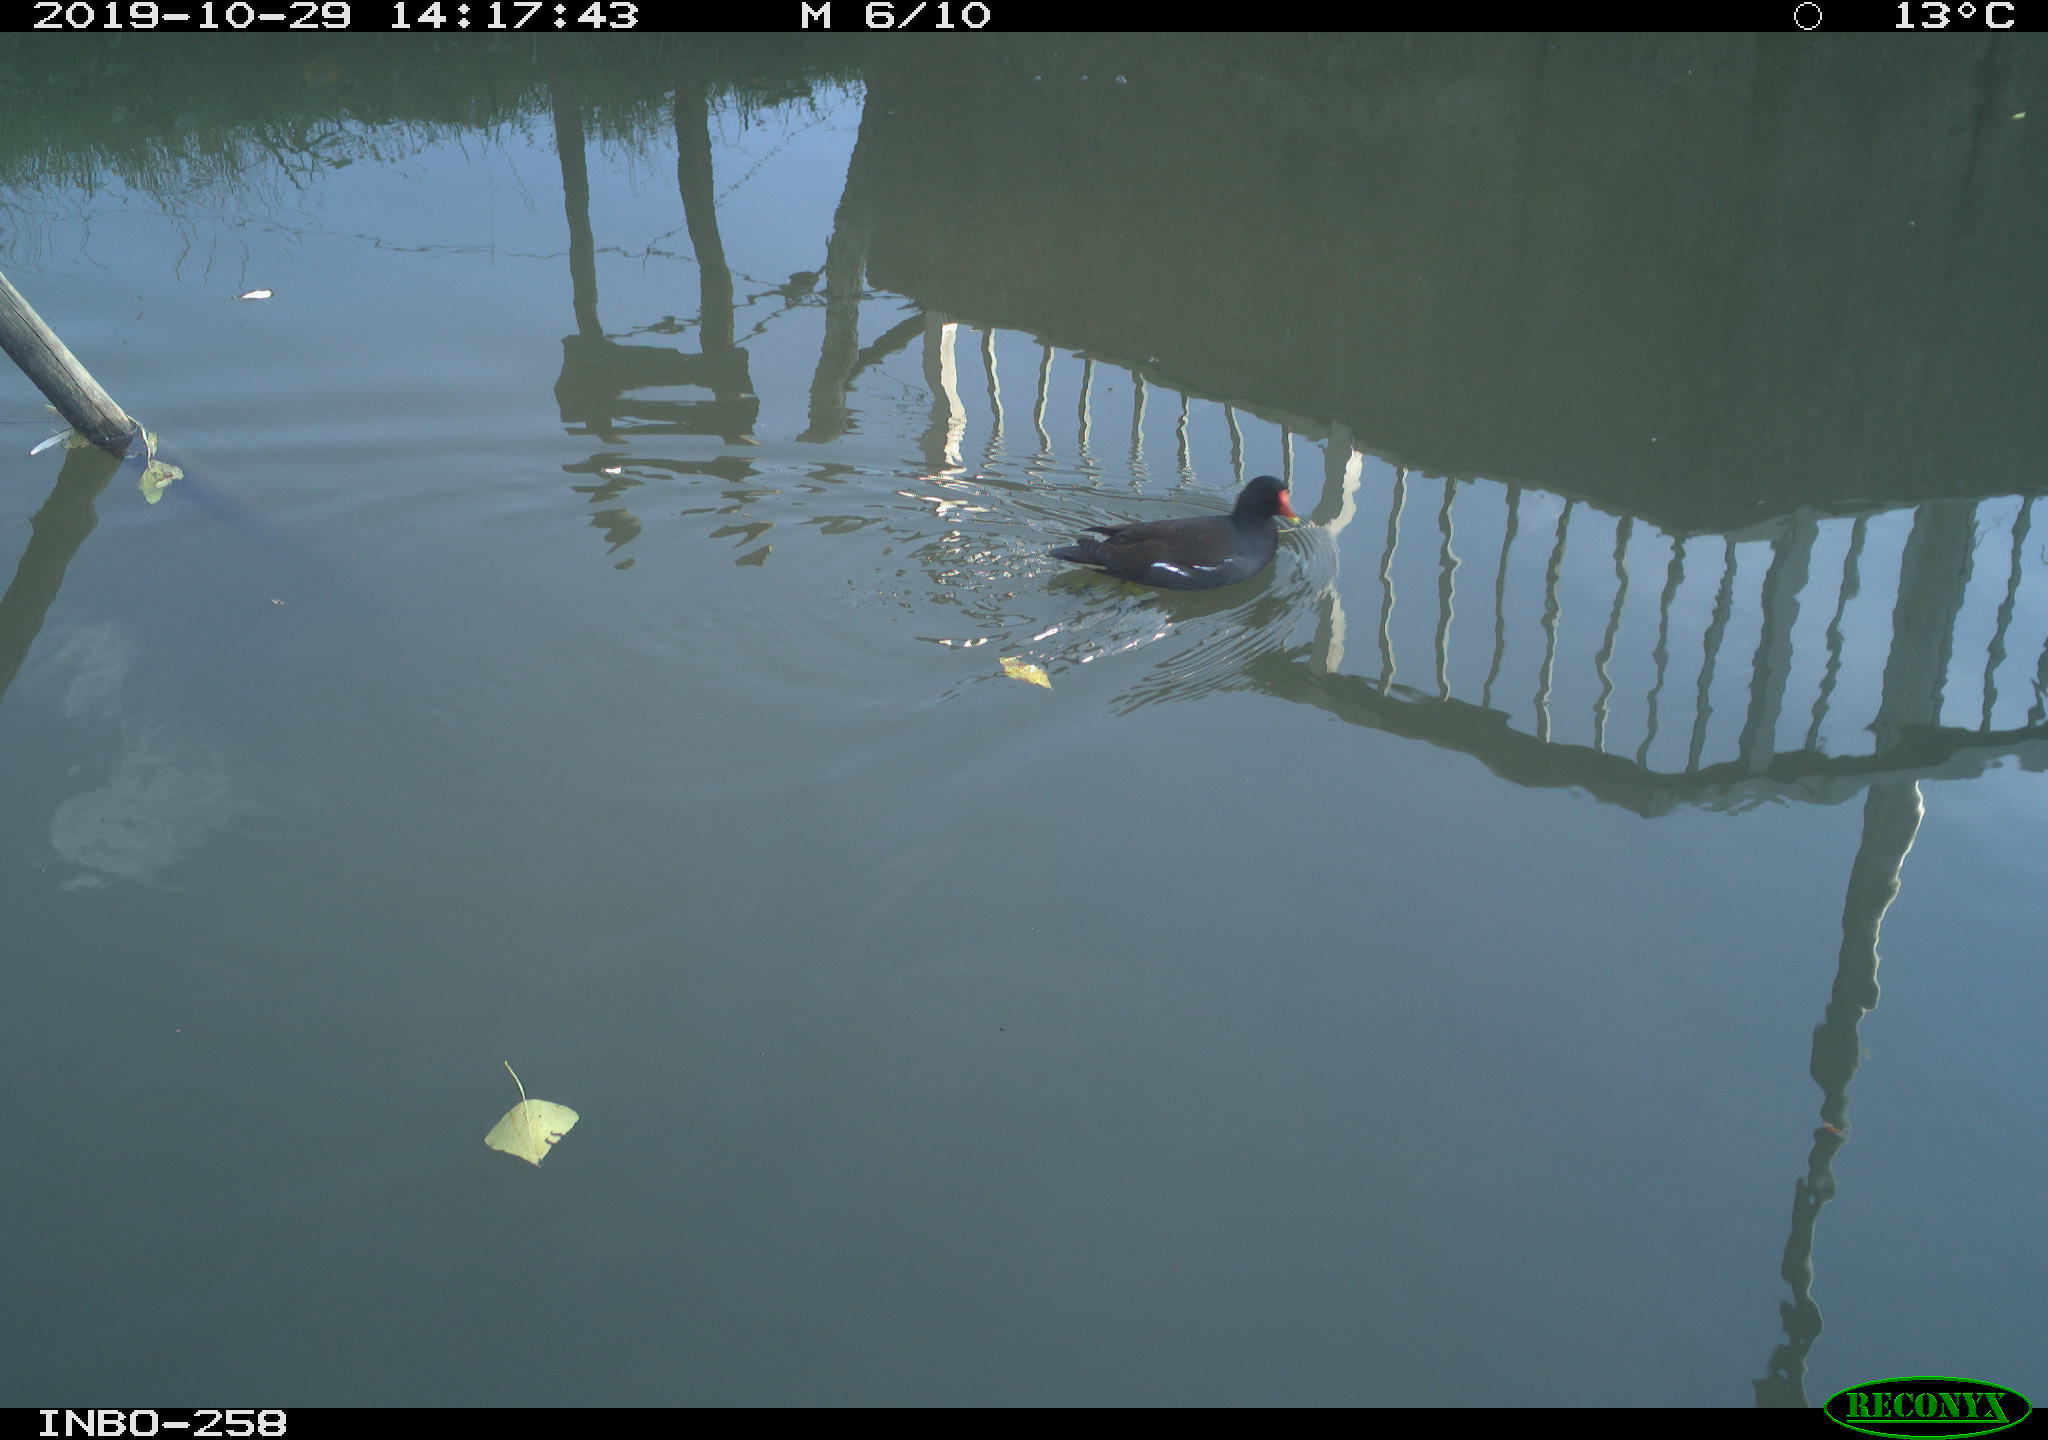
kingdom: Animalia
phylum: Chordata
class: Aves
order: Gruiformes
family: Rallidae
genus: Gallinula
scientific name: Gallinula chloropus
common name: Common moorhen
